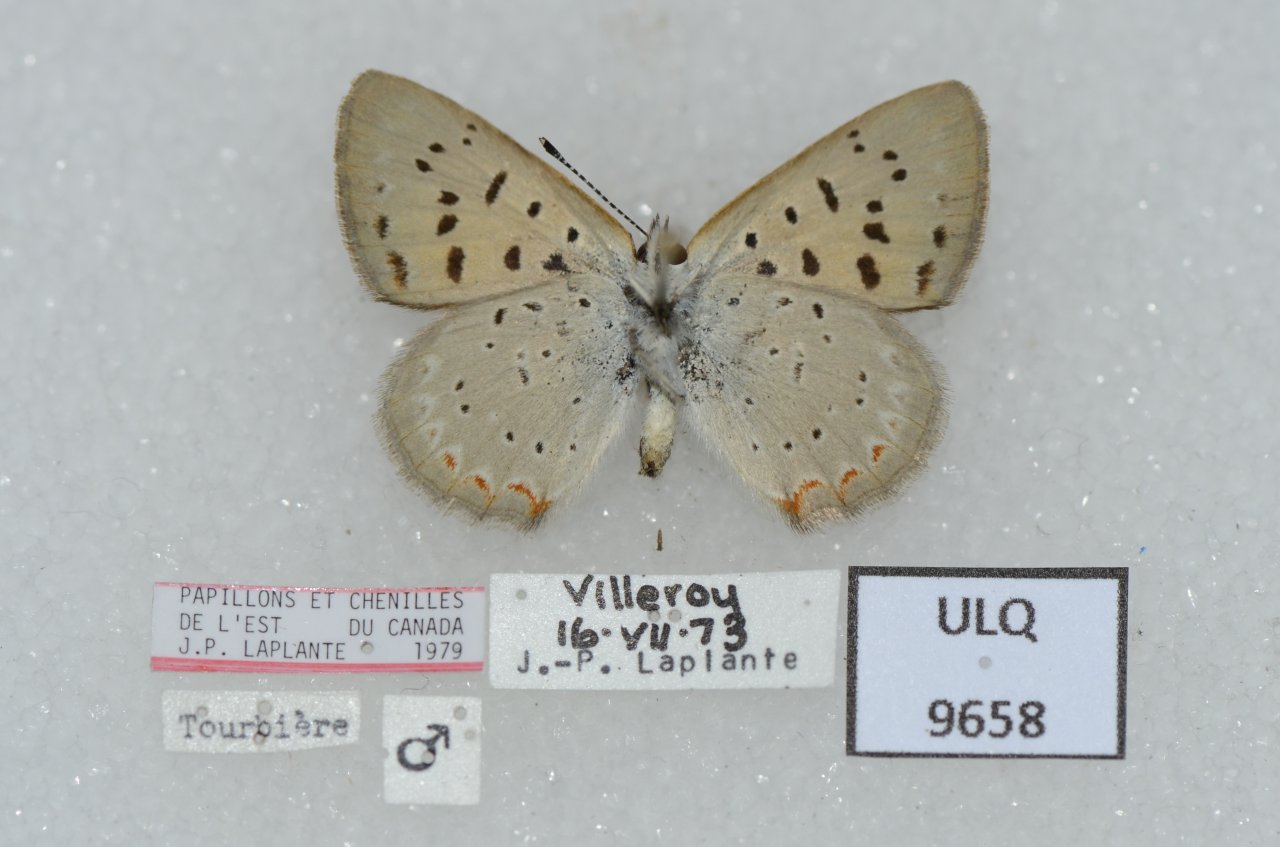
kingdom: Animalia
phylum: Arthropoda
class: Insecta
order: Lepidoptera
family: Sesiidae
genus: Sesia
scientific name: Sesia Lycaena epixanthe
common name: Bog Copper
